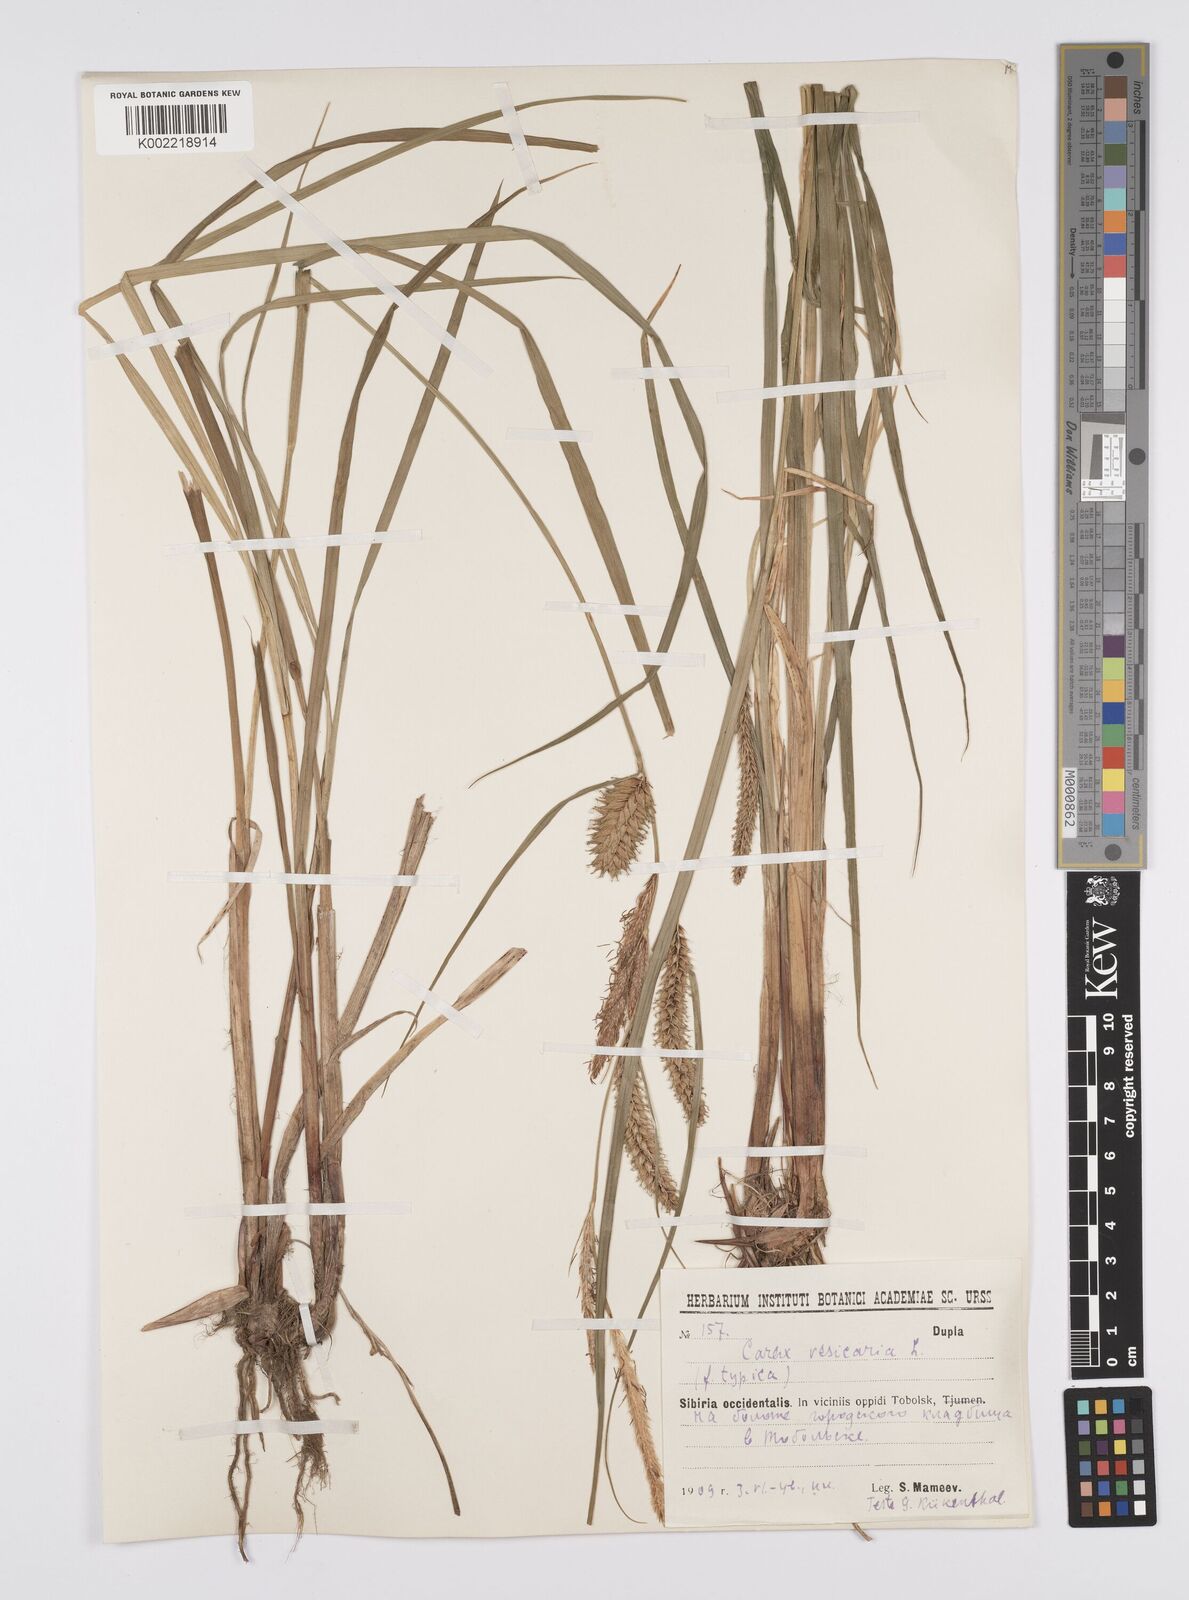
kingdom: Plantae
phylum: Tracheophyta
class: Liliopsida
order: Poales
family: Cyperaceae
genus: Carex
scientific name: Carex vesicaria
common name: Bladder-sedge
